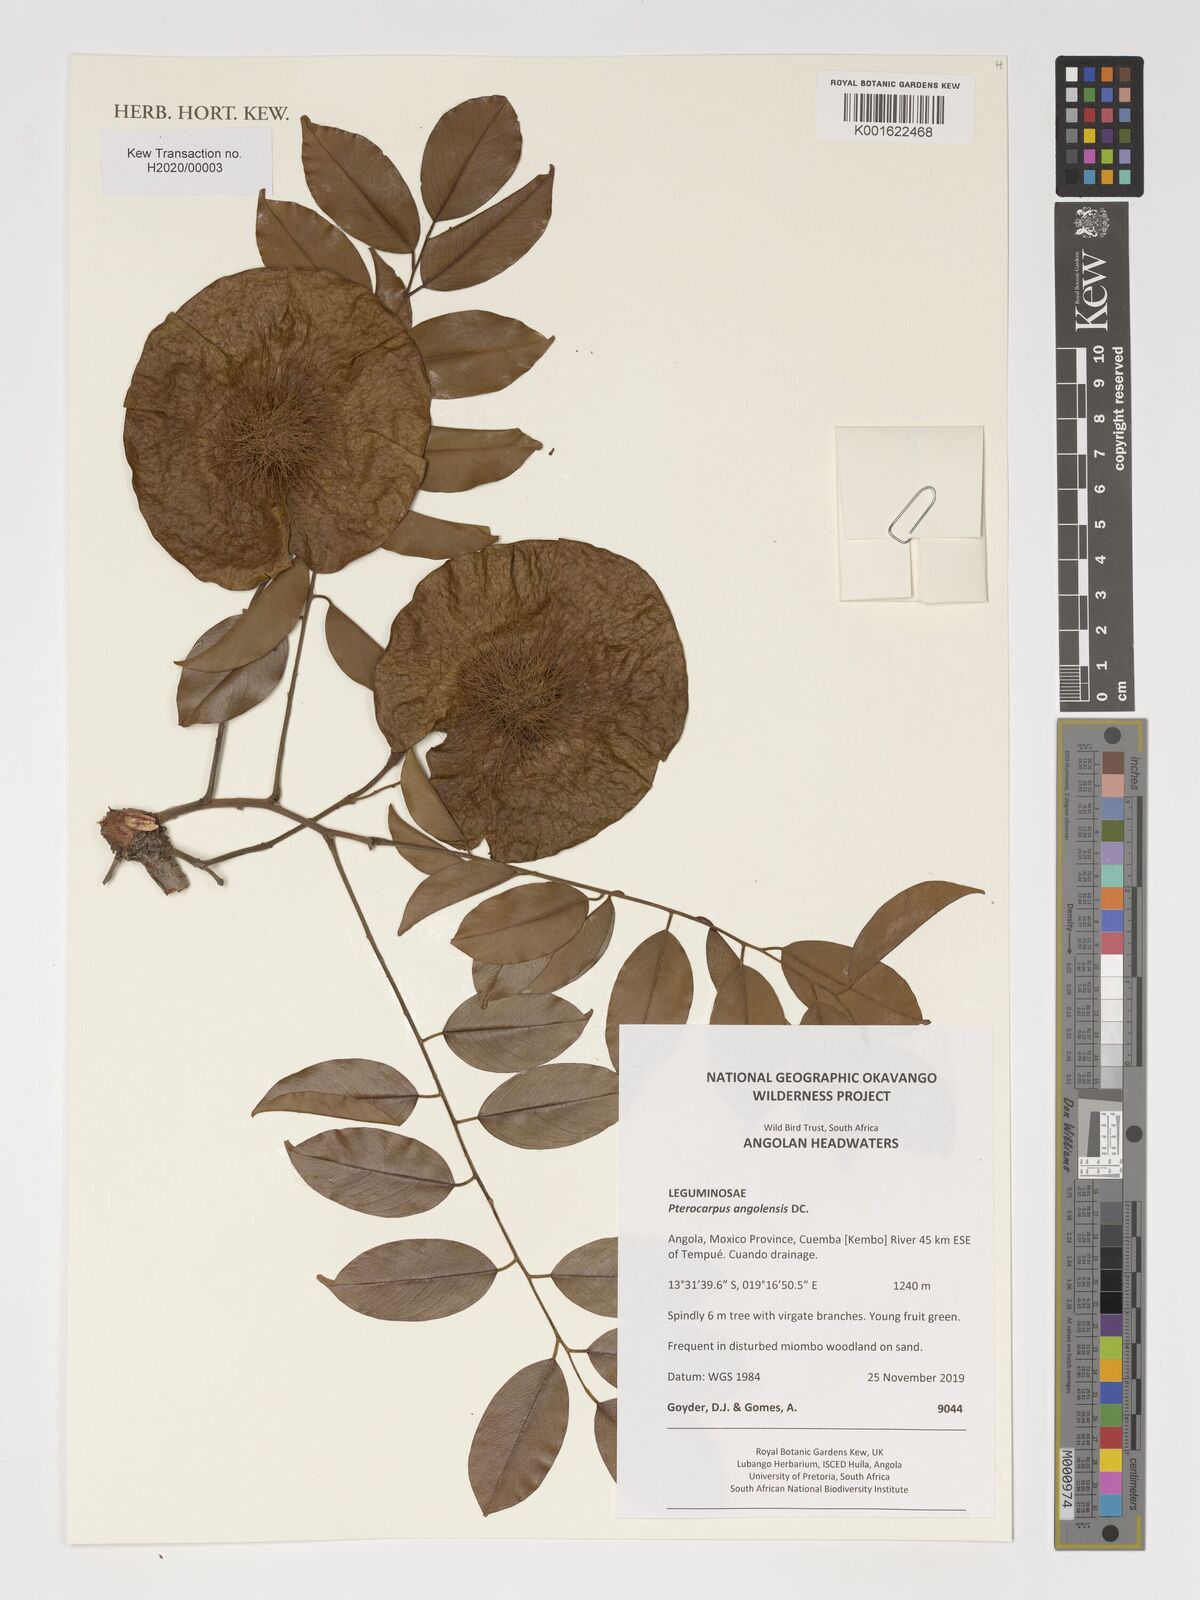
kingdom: Plantae
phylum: Tracheophyta
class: Magnoliopsida
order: Fabales
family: Fabaceae
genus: Pterocarpus
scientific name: Pterocarpus angolensis
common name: Bloodwood tree
